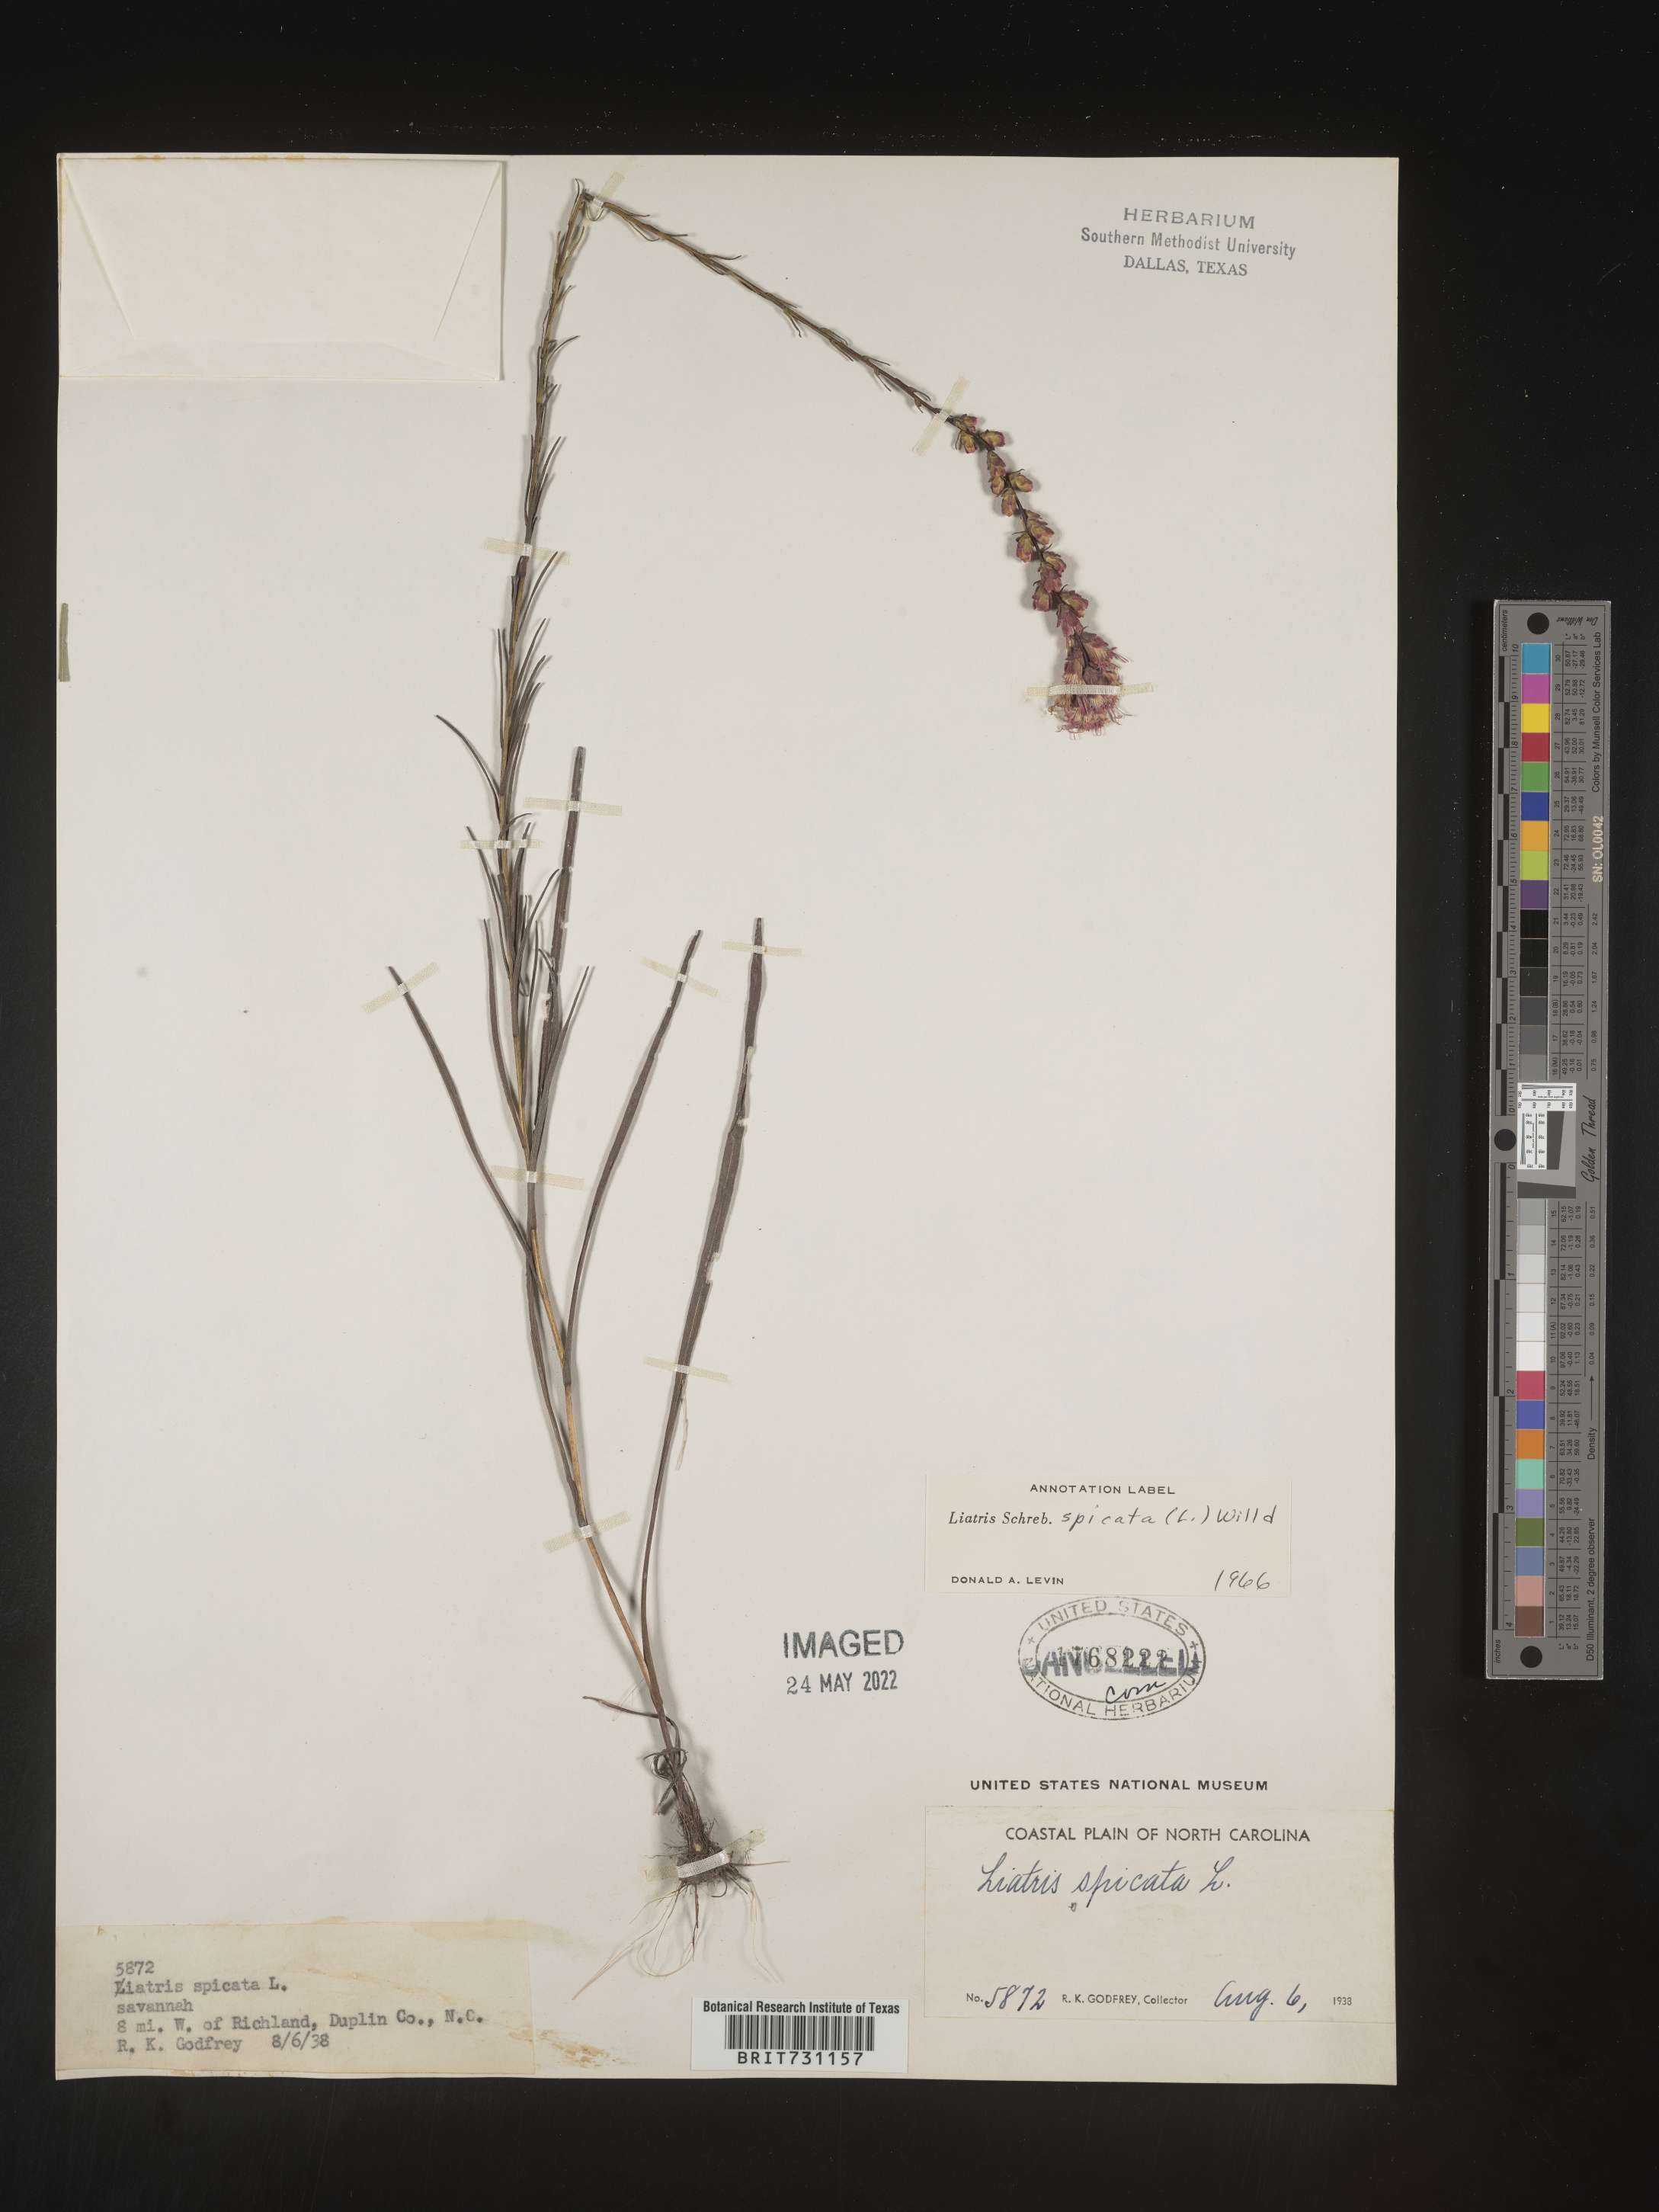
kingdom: Plantae
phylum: Tracheophyta
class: Magnoliopsida
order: Asterales
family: Asteraceae
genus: Liatris
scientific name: Liatris spicata
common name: Florist gayfeather
